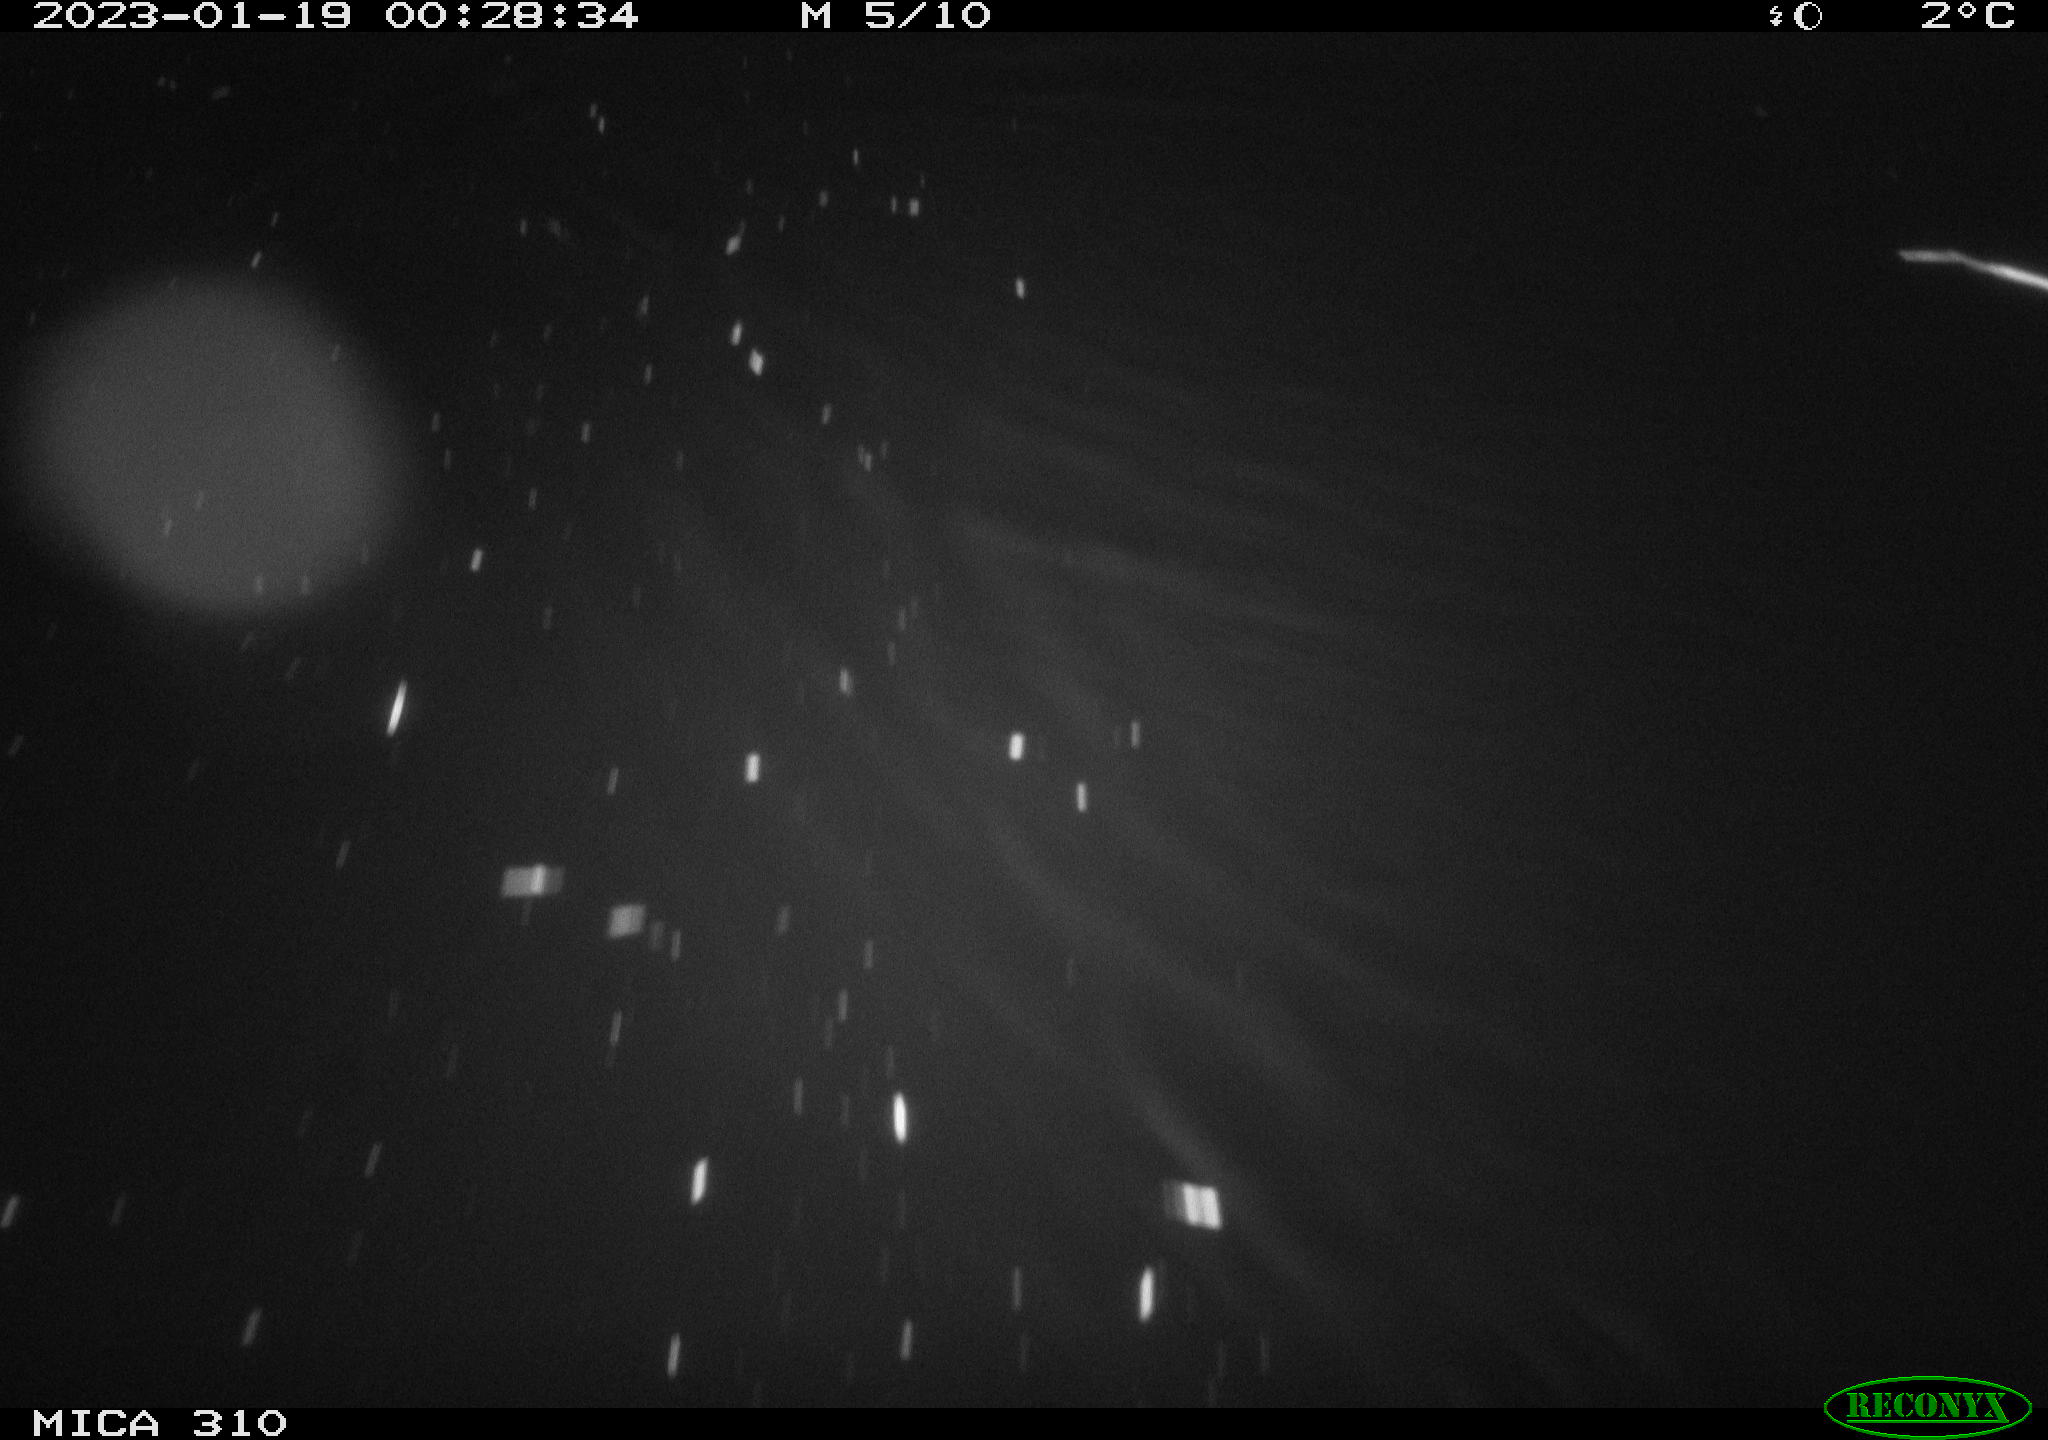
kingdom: Animalia
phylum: Chordata
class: Mammalia
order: Rodentia
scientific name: Rodentia
